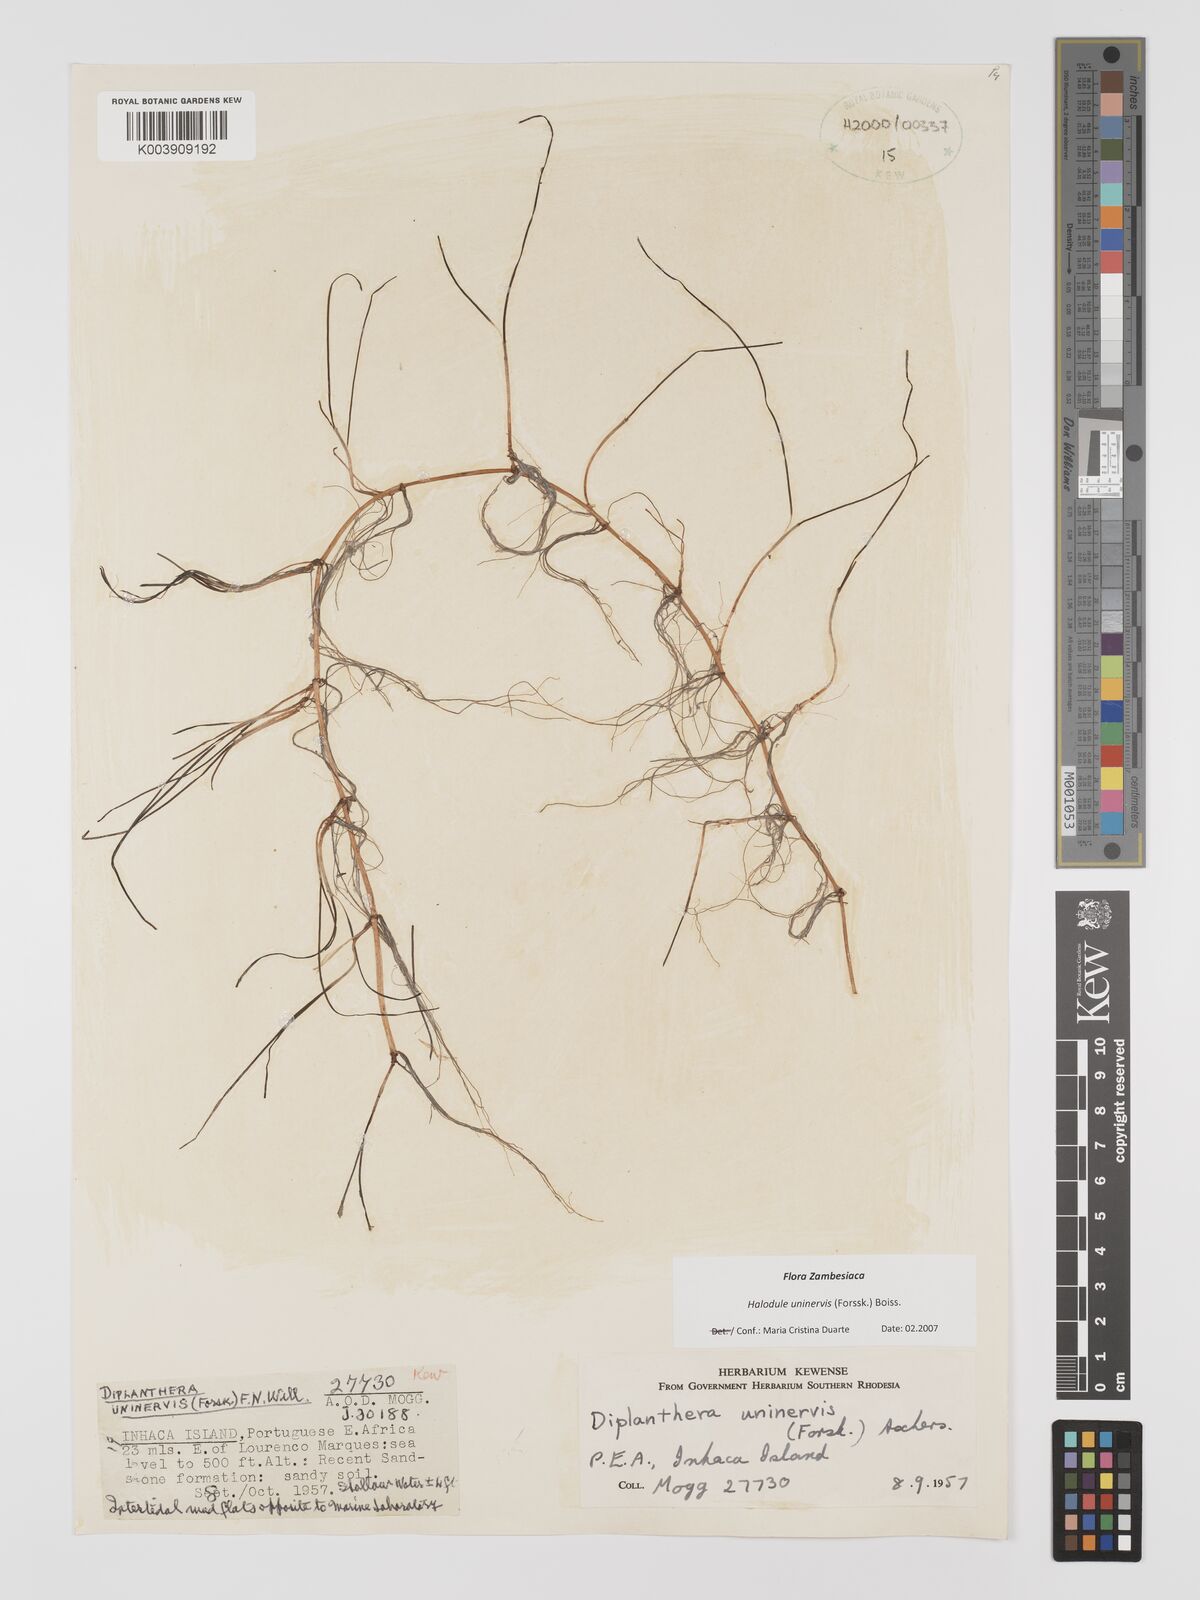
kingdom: Plantae
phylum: Tracheophyta
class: Liliopsida
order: Alismatales
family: Cymodoceaceae
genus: Halodule
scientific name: Halodule uninervis
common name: Narrowleaf seagrass
